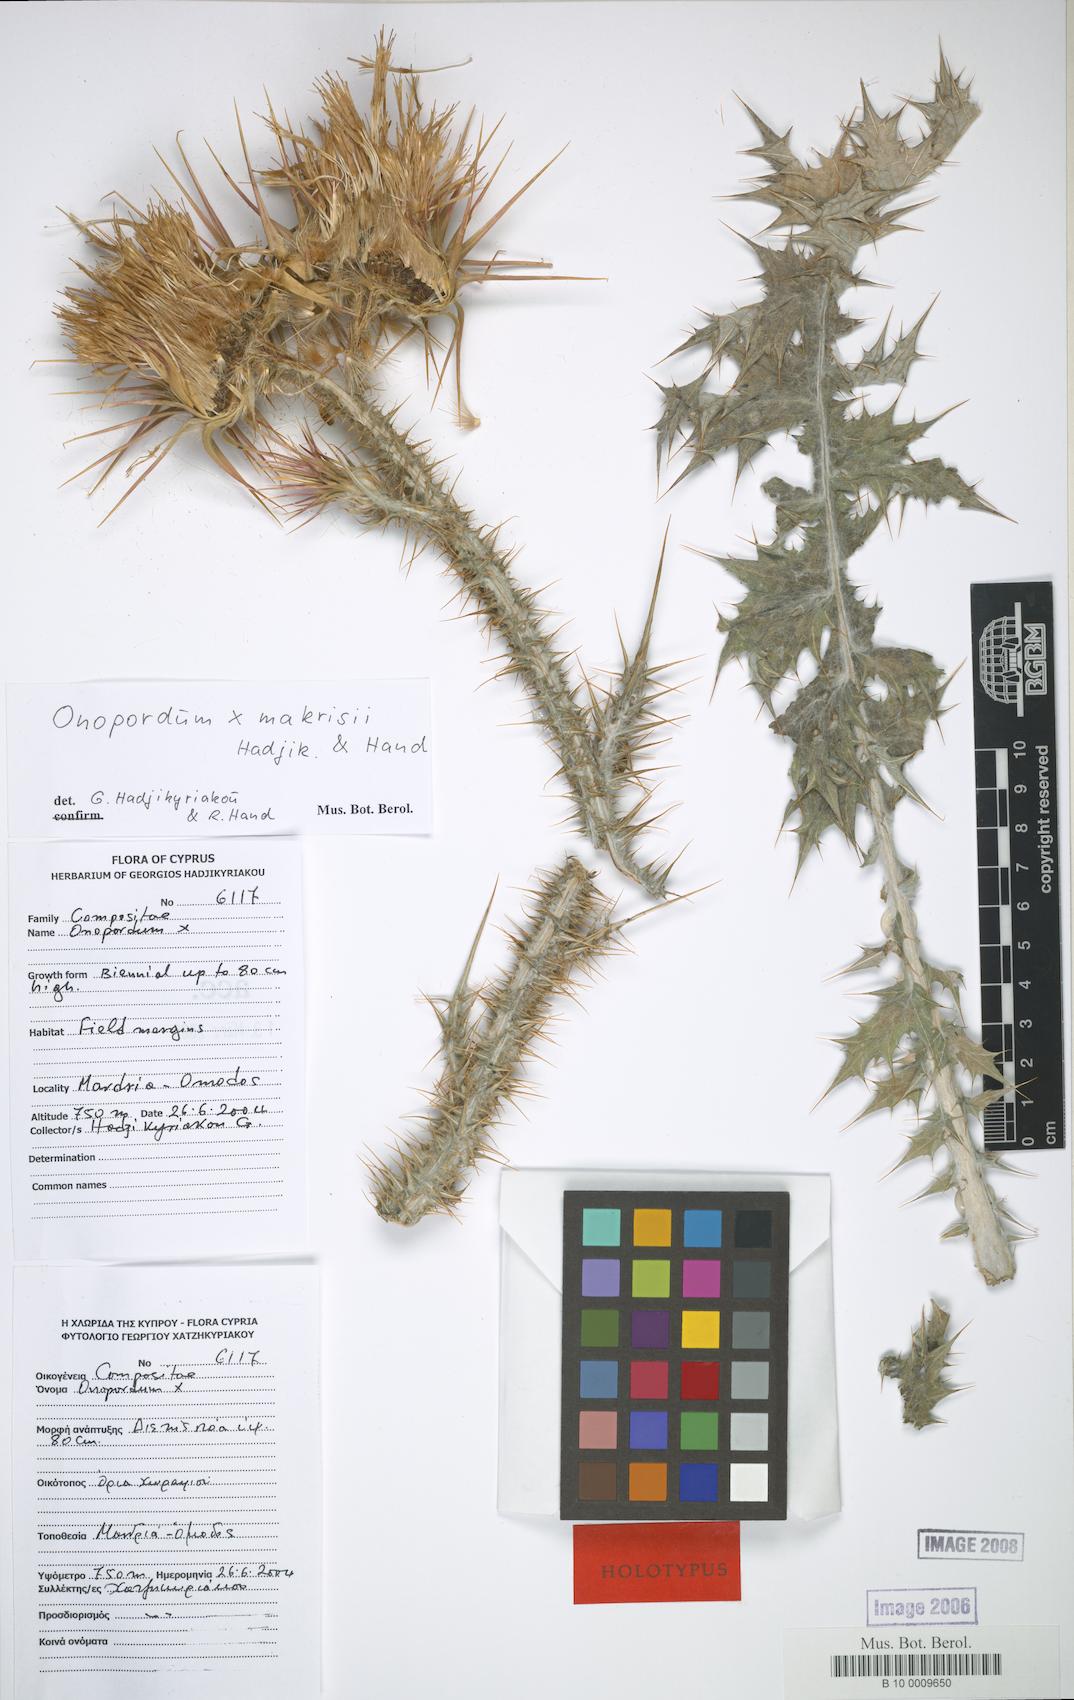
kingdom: Plantae
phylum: Tracheophyta
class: Magnoliopsida
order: Asterales
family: Asteraceae
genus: Onopordum
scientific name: Onopordum makrisii
